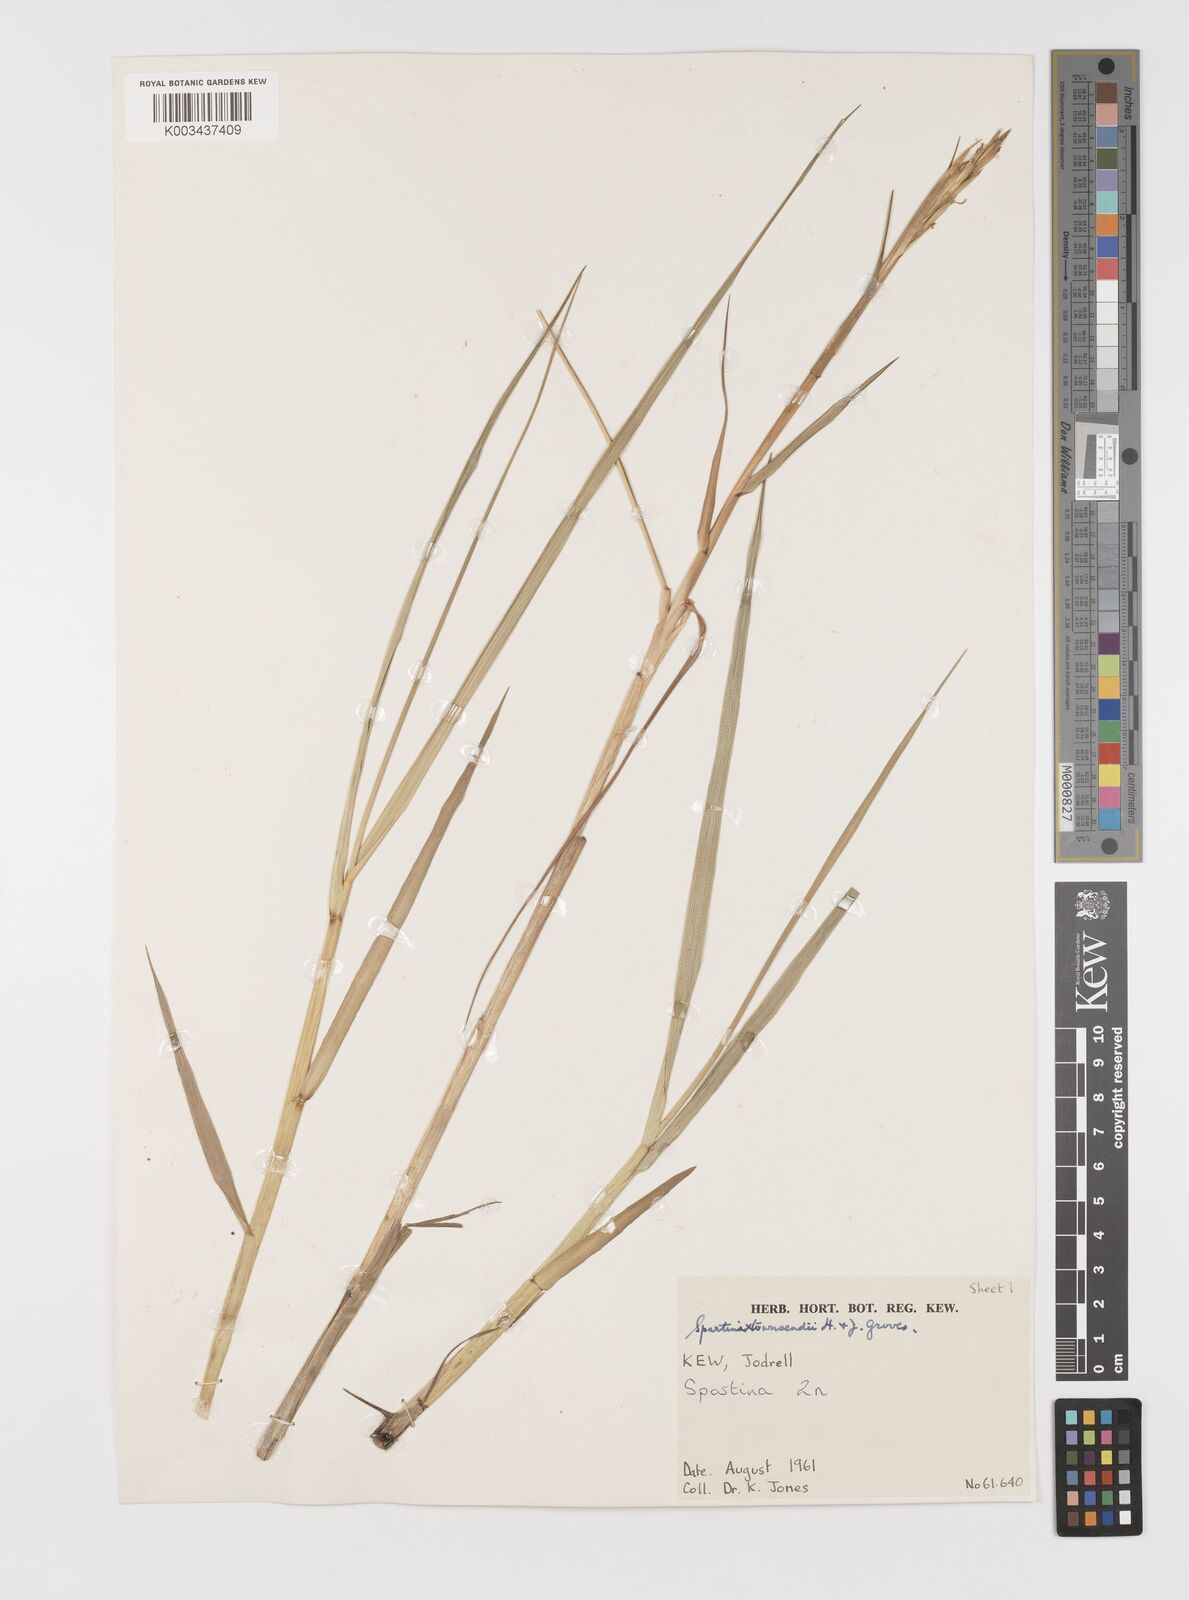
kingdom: Plantae
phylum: Tracheophyta
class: Liliopsida
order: Poales
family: Poaceae
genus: Sporobolus
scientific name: Sporobolus townsendii
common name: Townsend's cordgrass
